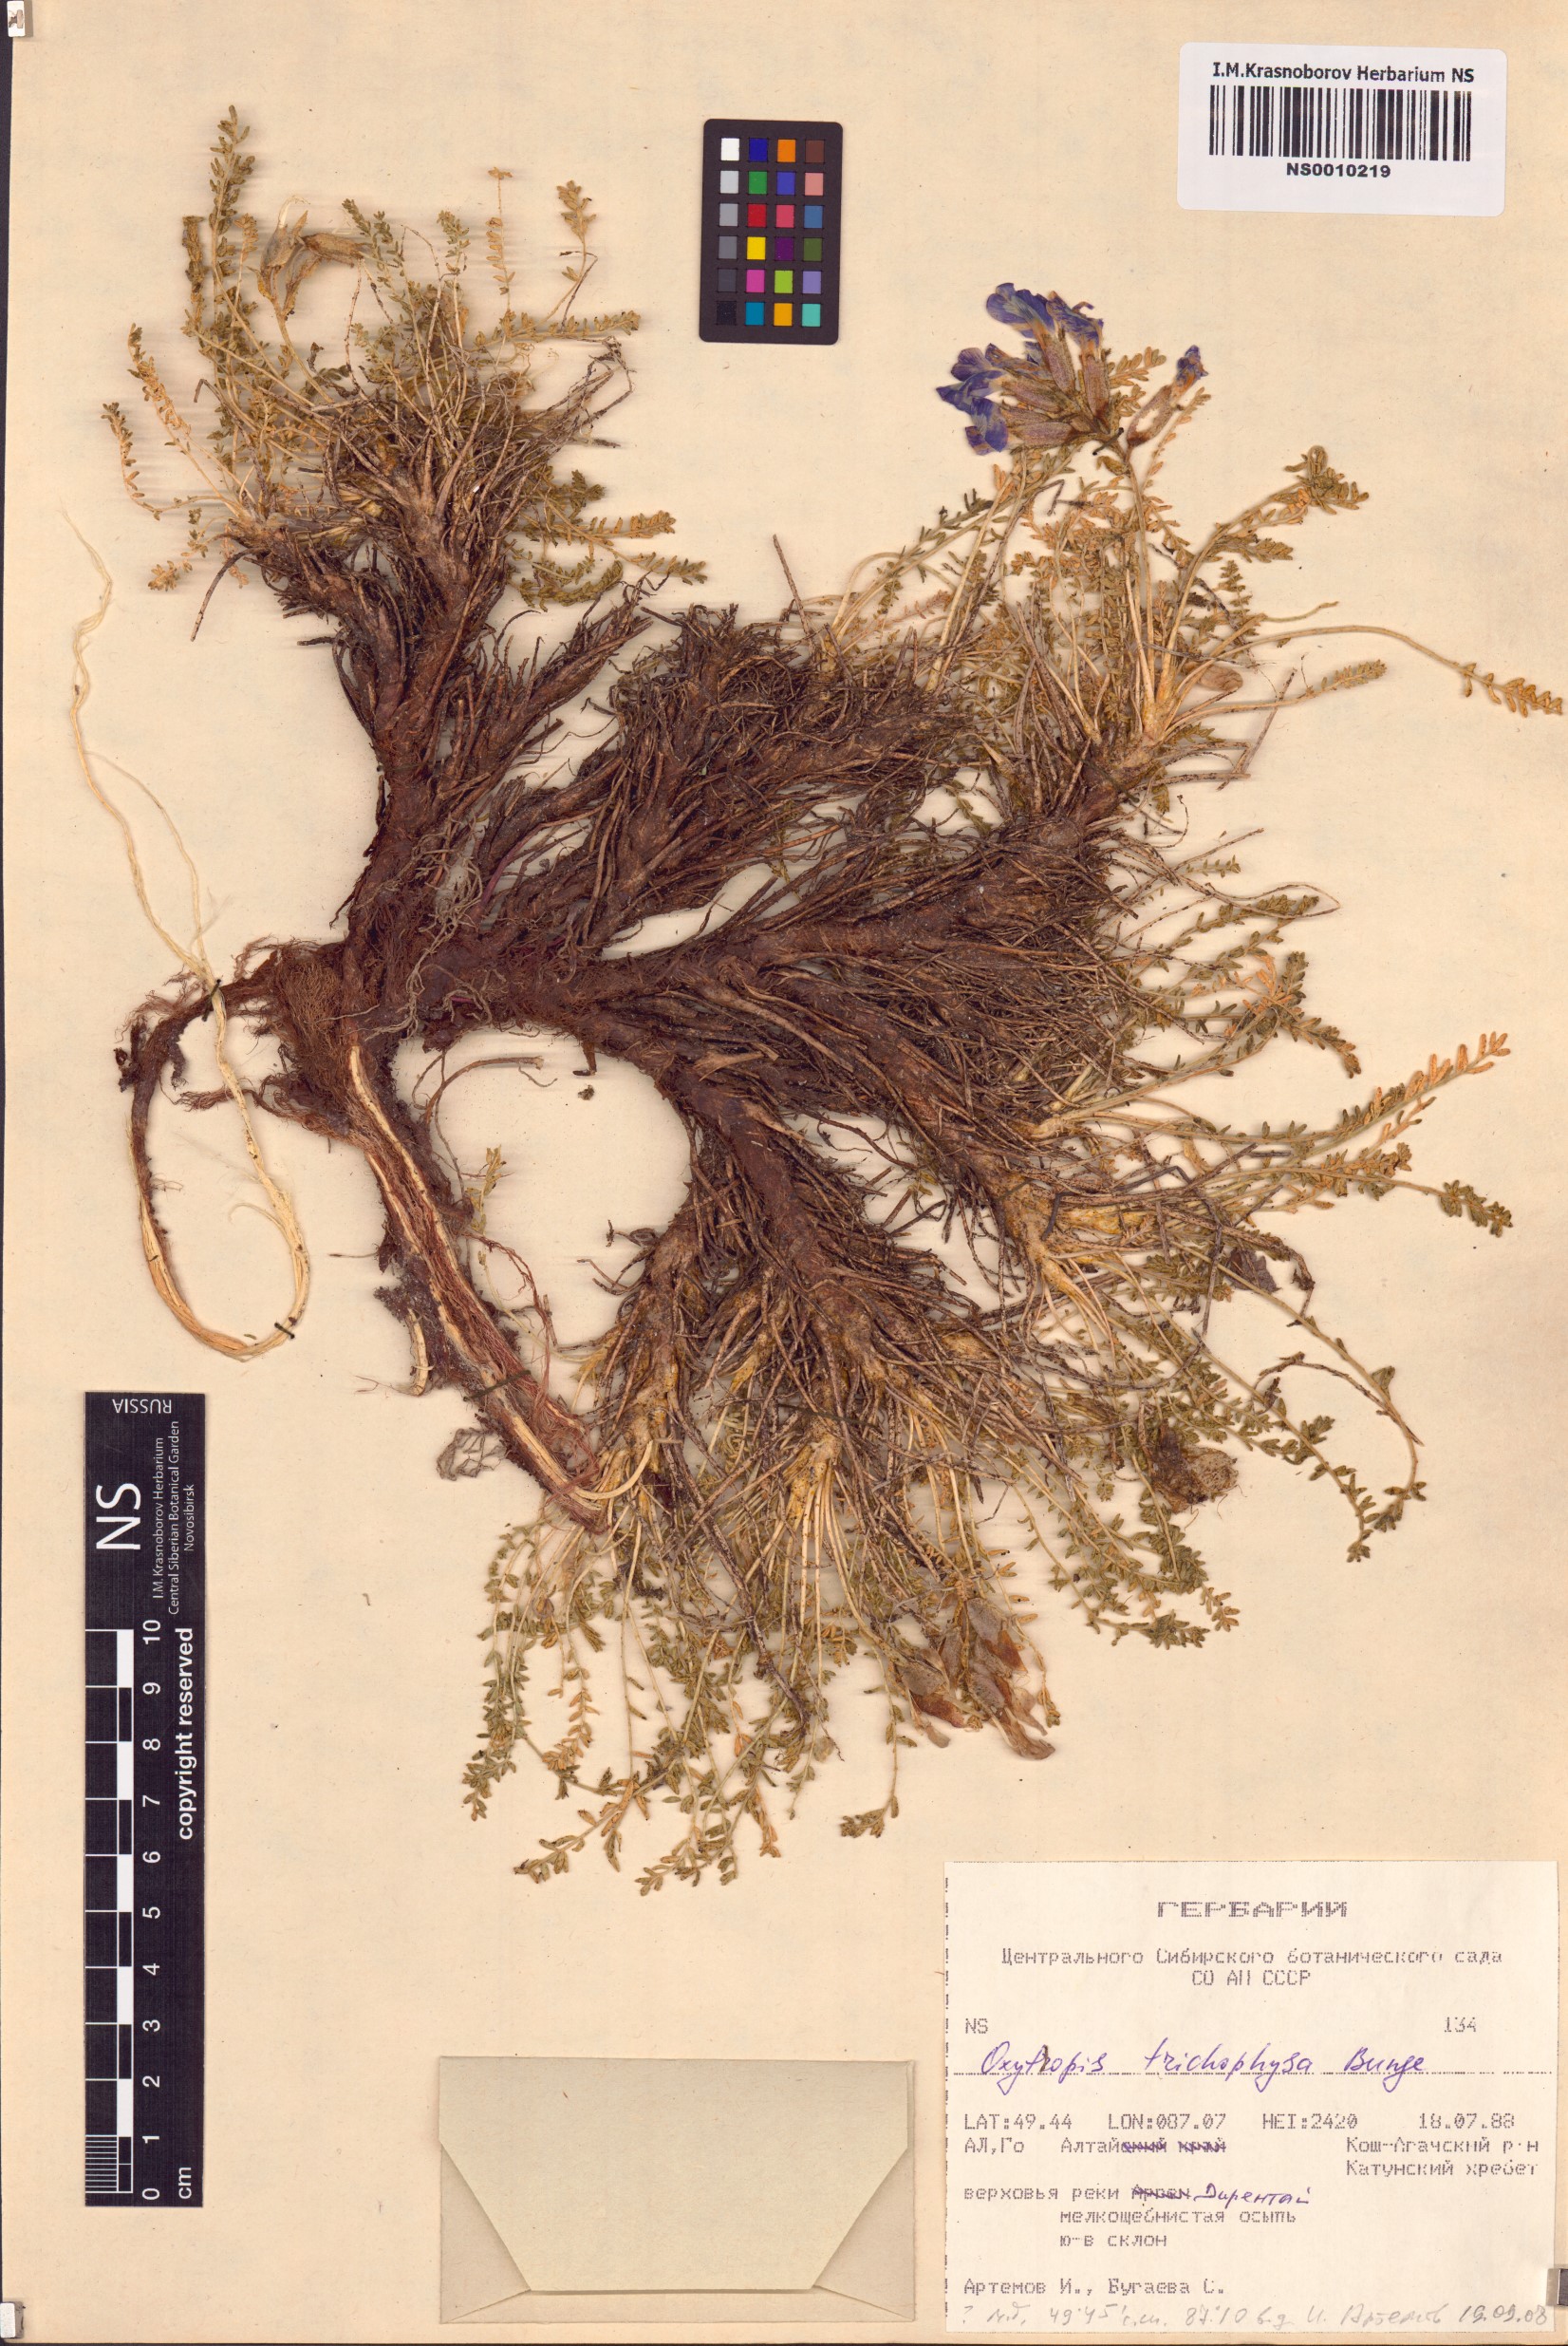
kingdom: Plantae
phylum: Tracheophyta
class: Magnoliopsida
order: Fabales
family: Fabaceae
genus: Oxytropis
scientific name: Oxytropis trichophysa
